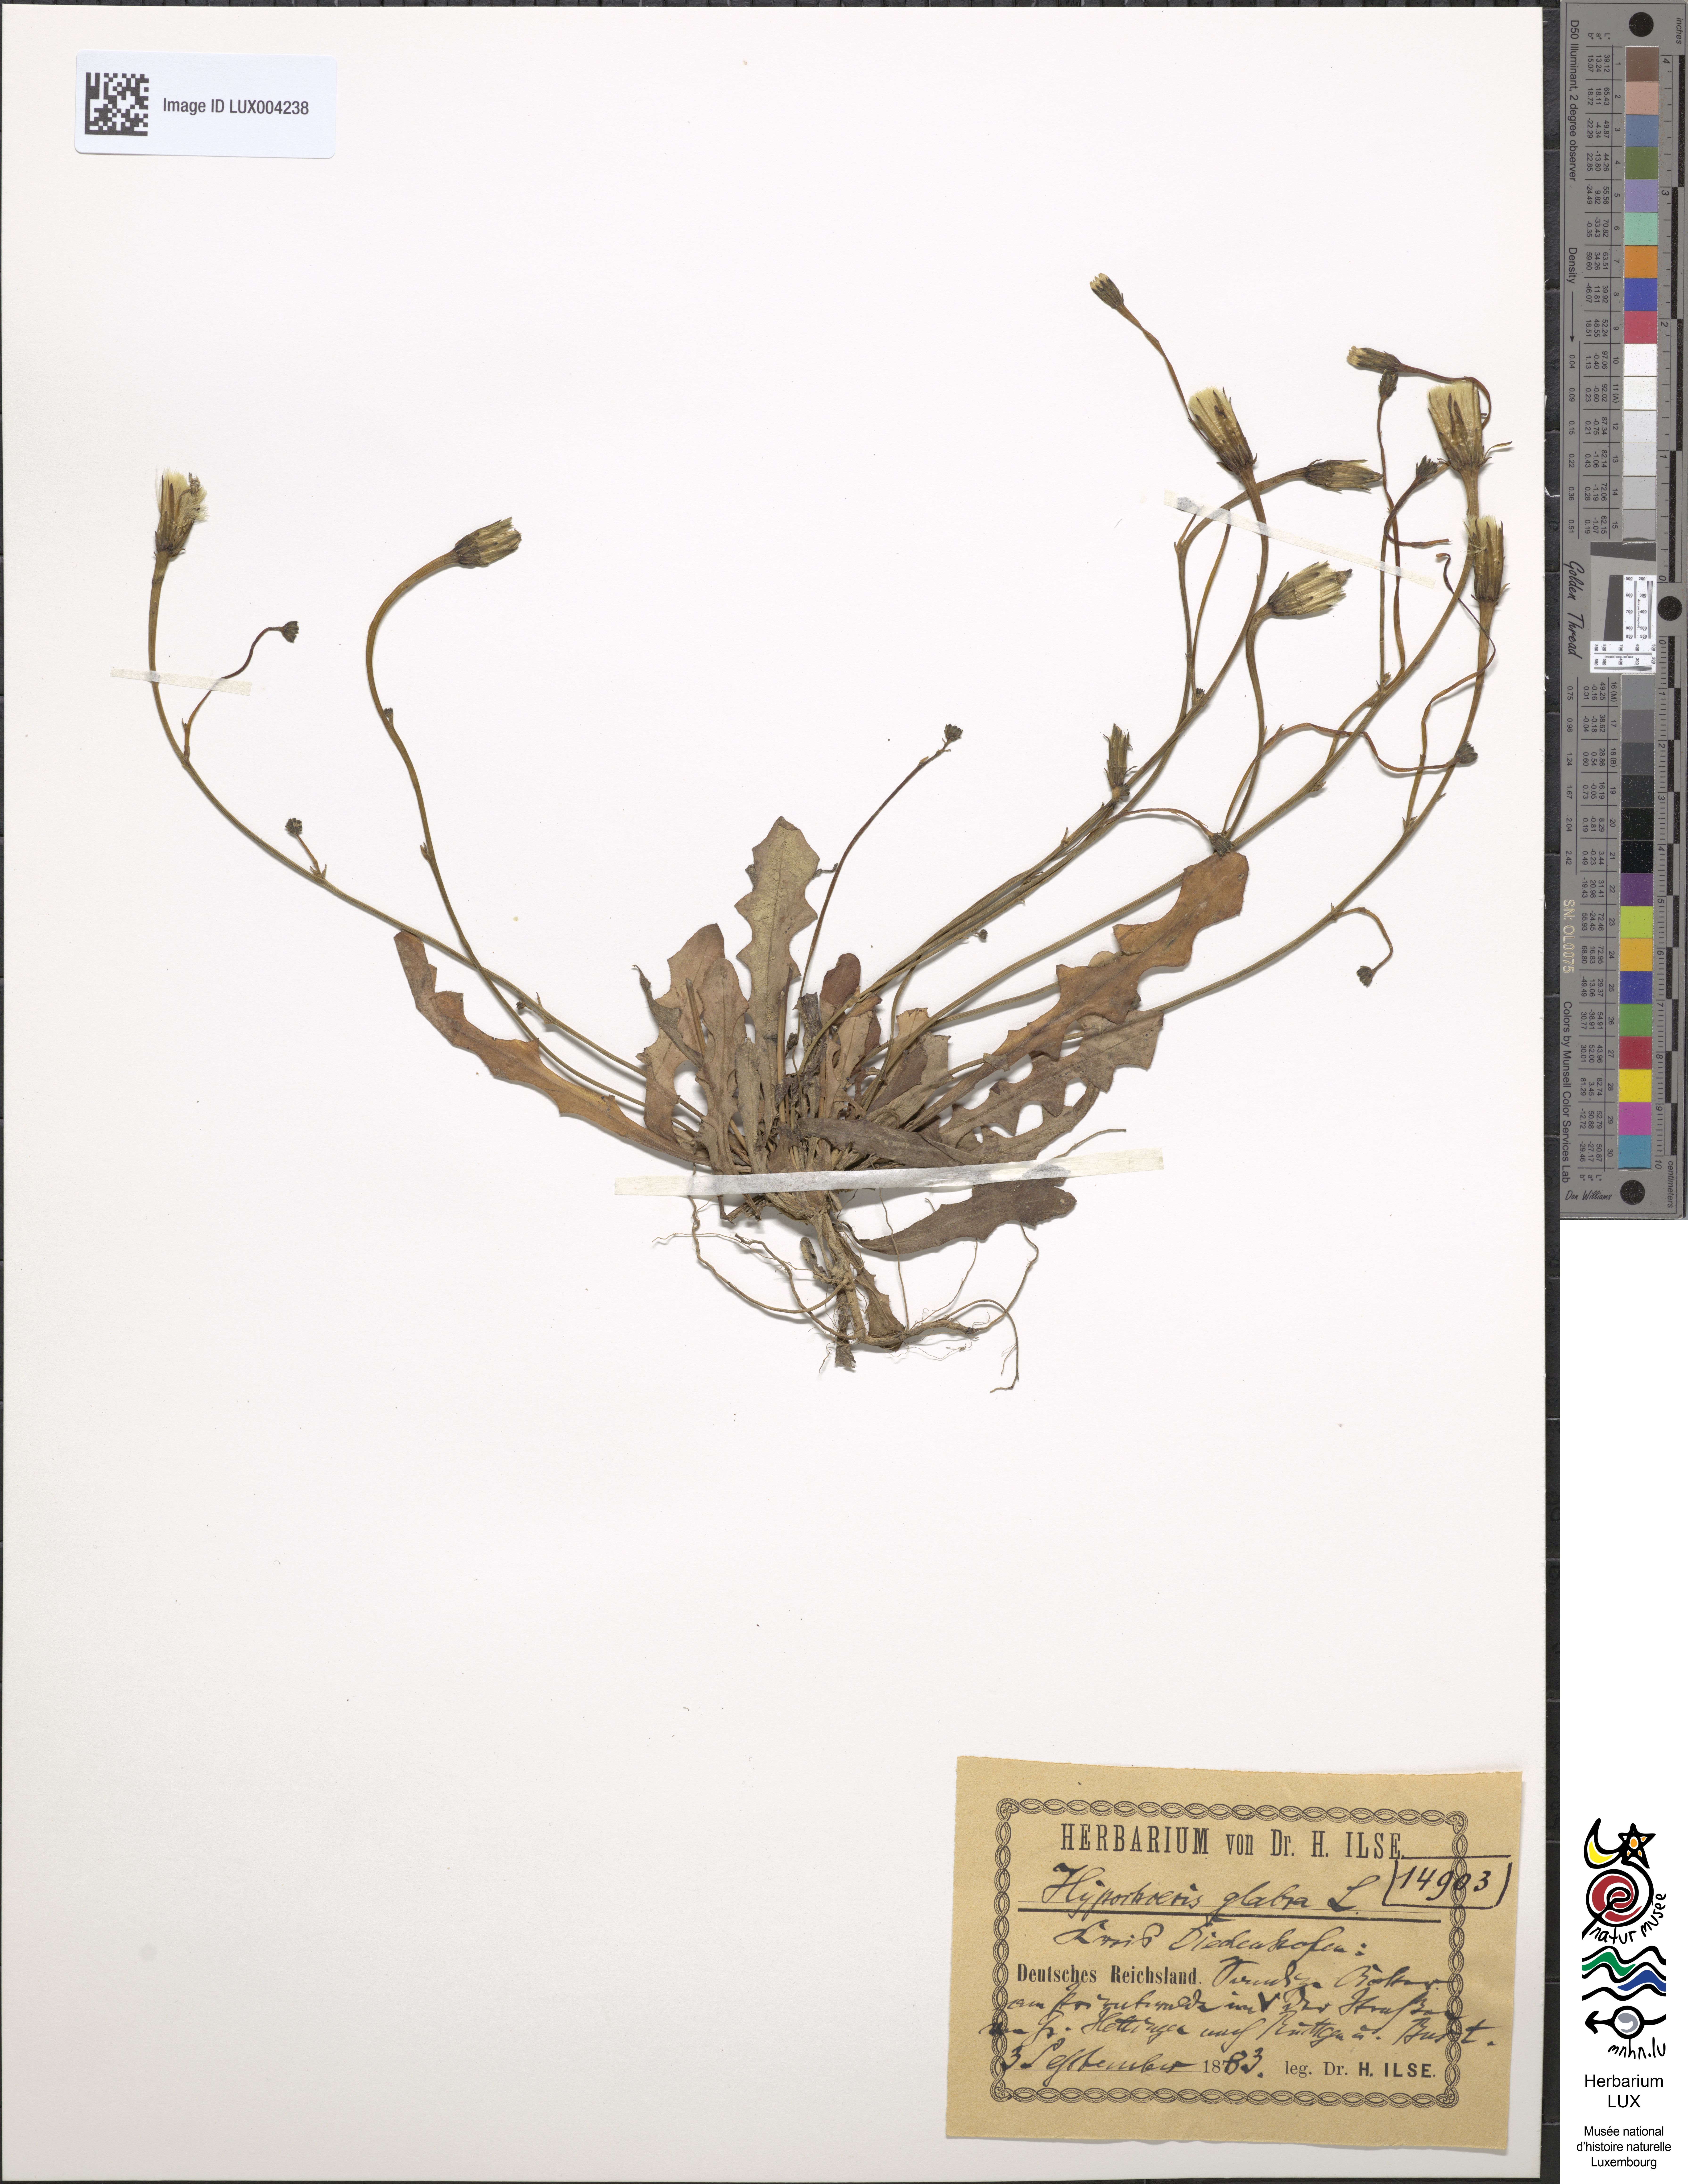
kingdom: Plantae
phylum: Tracheophyta
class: Magnoliopsida
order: Asterales
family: Asteraceae
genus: Hypochoeris
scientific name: Hypochoeris glabra
